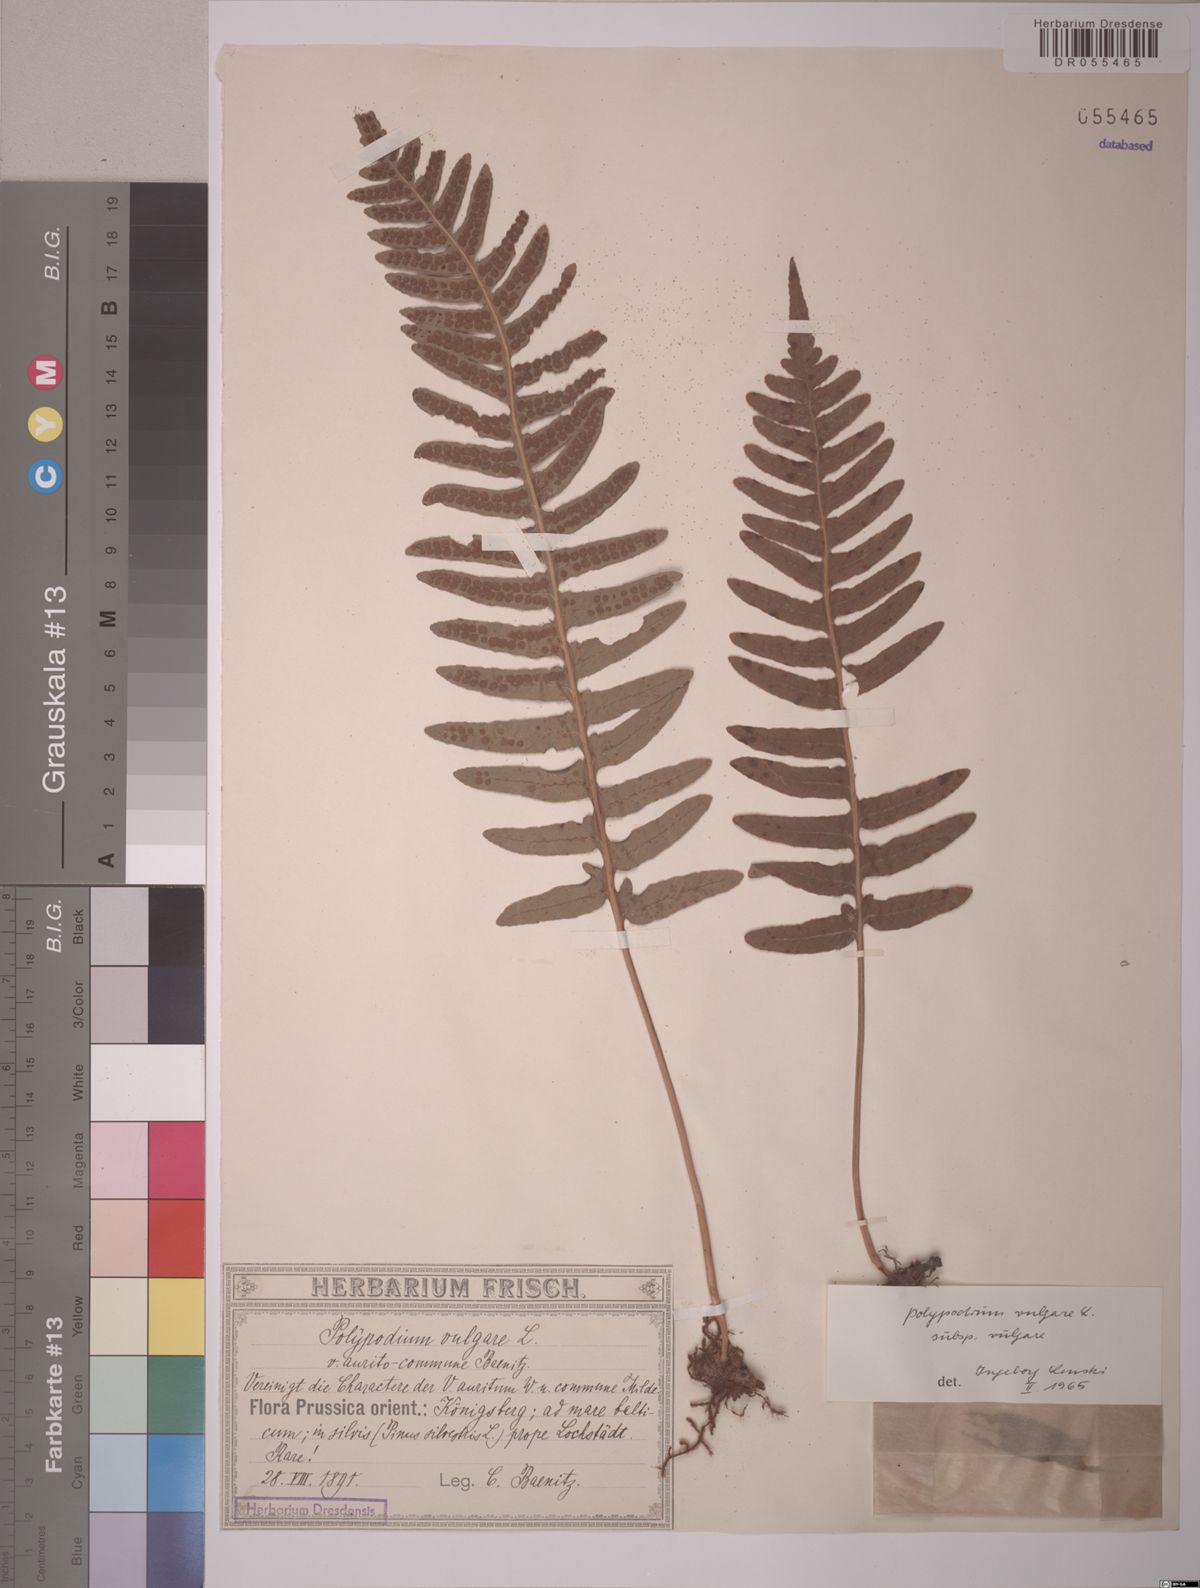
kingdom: Plantae
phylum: Tracheophyta
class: Polypodiopsida
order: Polypodiales
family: Polypodiaceae
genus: Polypodium
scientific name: Polypodium vulgare
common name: Common polypody
